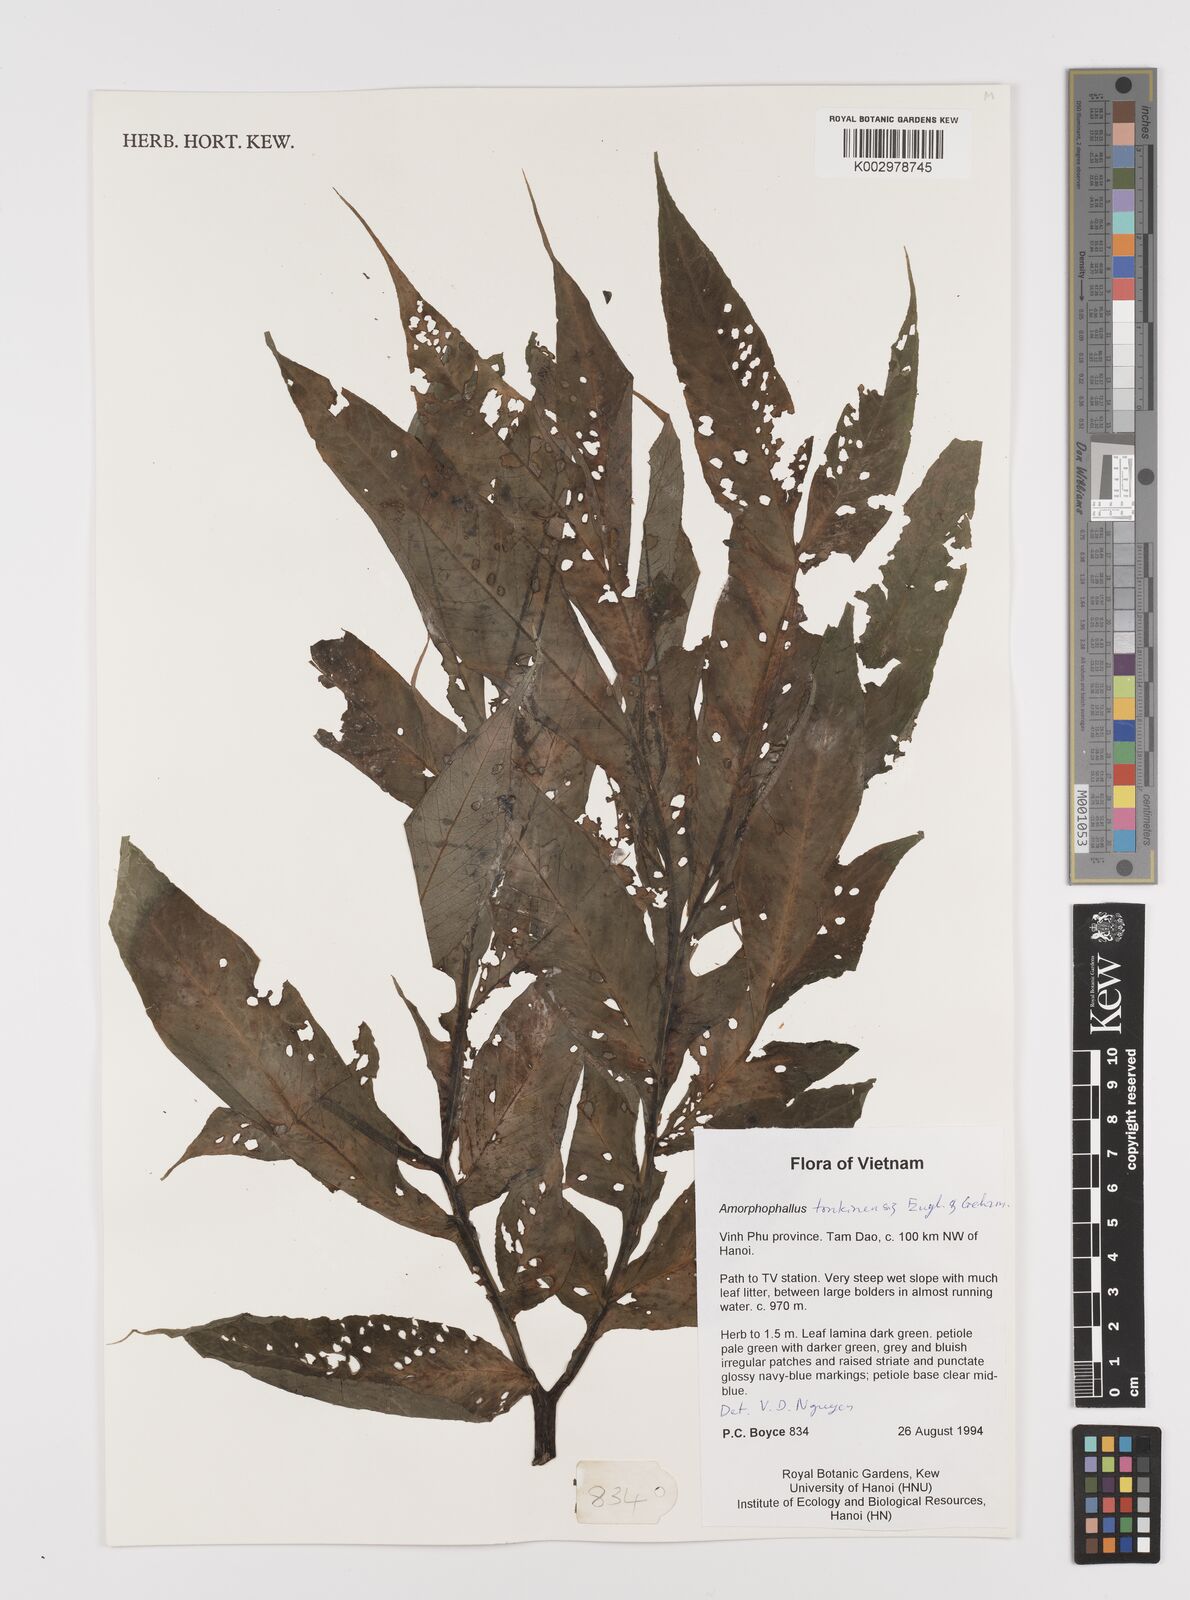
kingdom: Plantae
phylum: Tracheophyta
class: Liliopsida
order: Alismatales
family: Araceae
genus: Amorphophallus
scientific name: Amorphophallus tonkinensis
